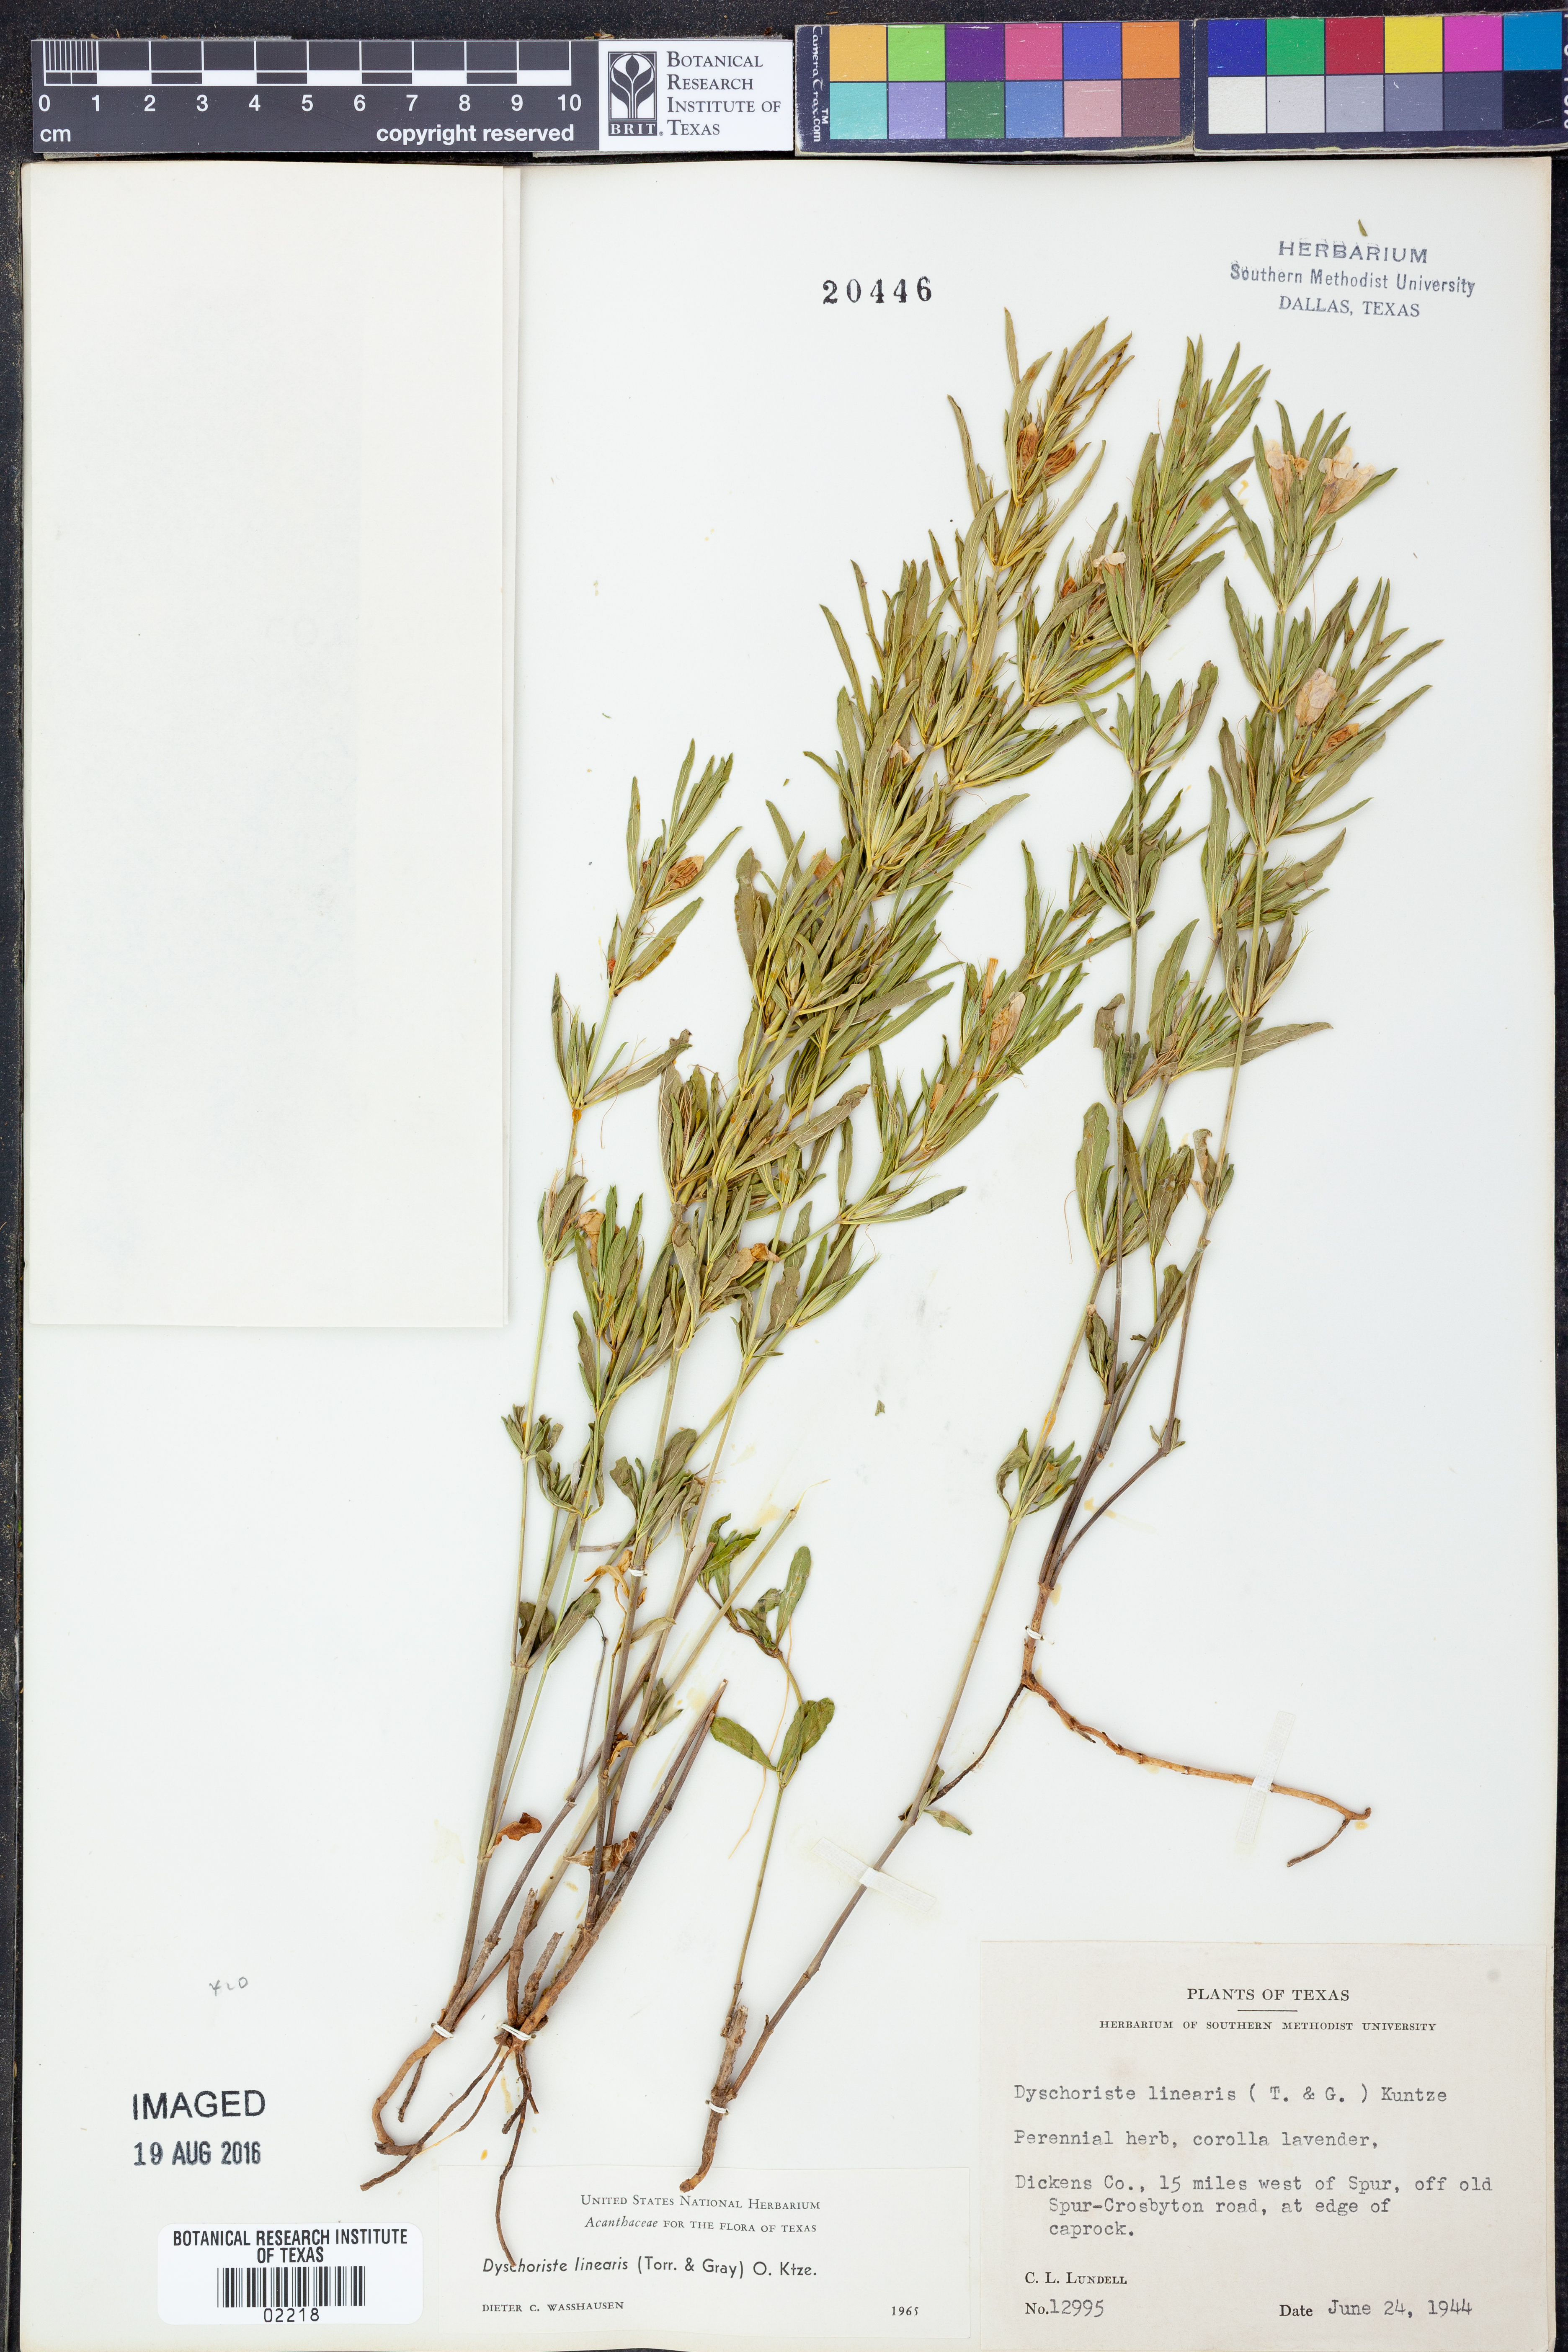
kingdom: Plantae
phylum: Tracheophyta
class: Magnoliopsida
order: Lamiales
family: Acanthaceae
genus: Dyschoriste
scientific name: Dyschoriste linearis
